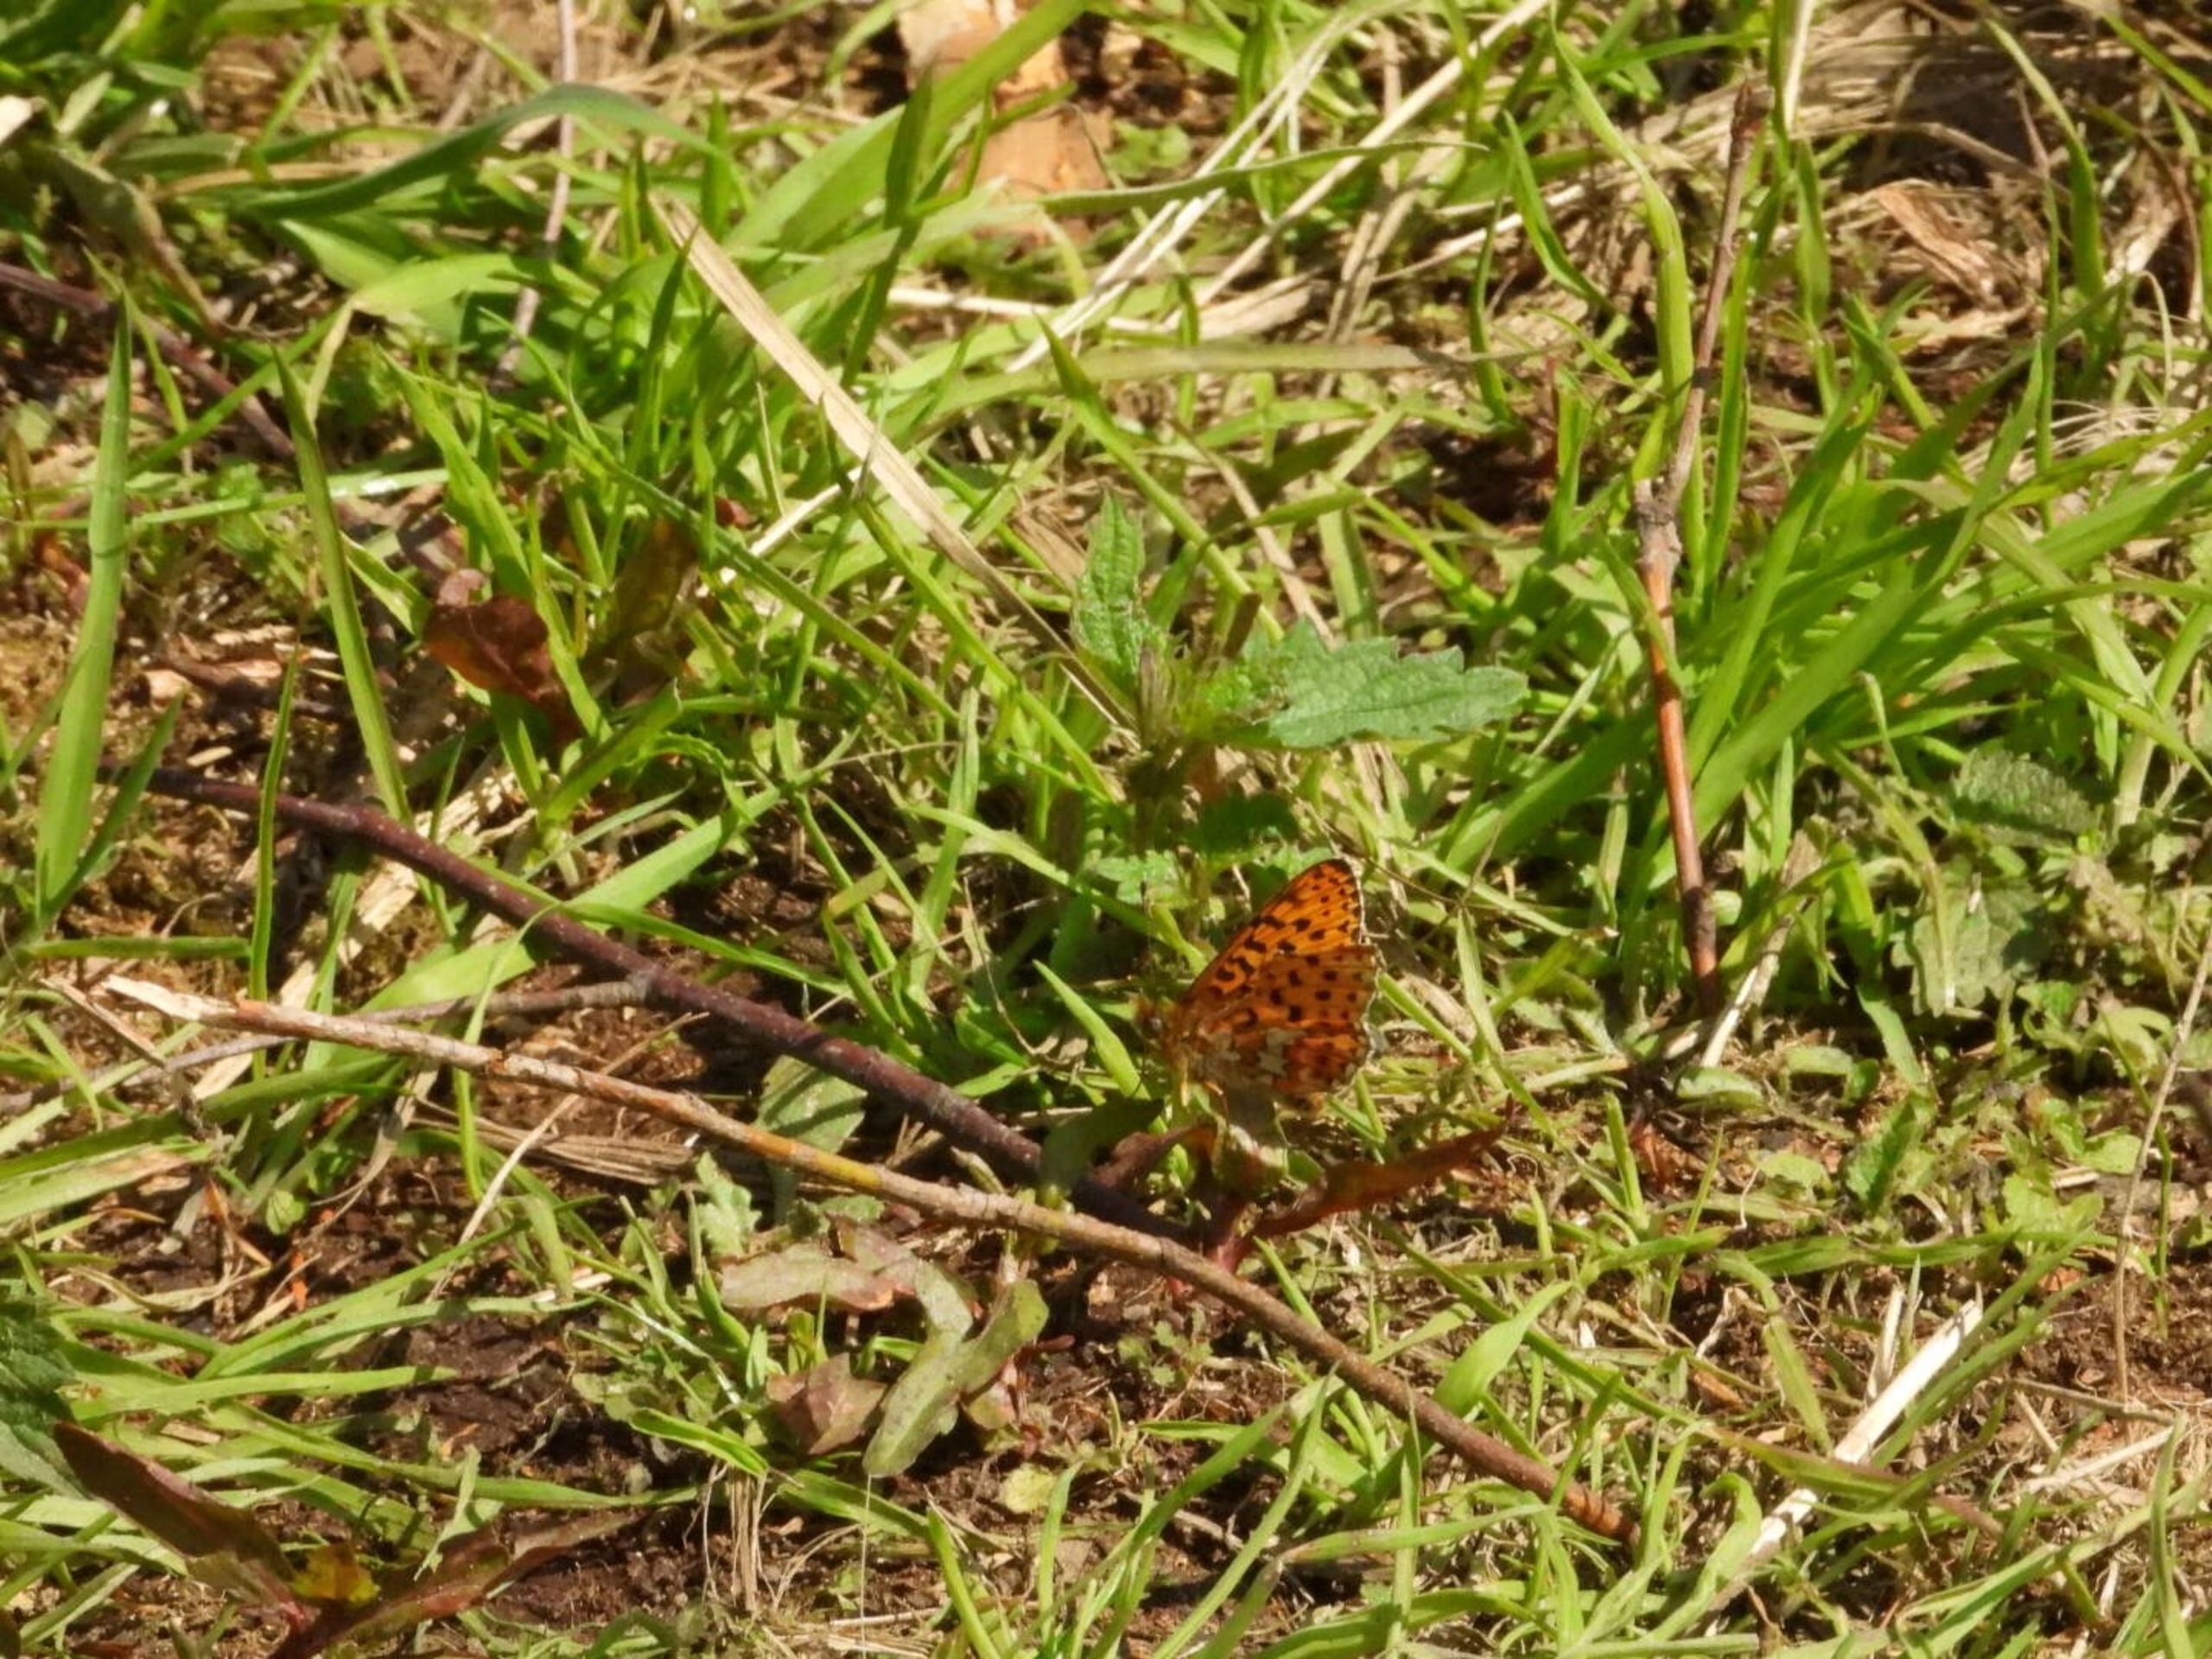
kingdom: Animalia
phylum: Arthropoda
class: Insecta
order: Lepidoptera
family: Nymphalidae
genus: Clossiana
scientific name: Clossiana euphrosyne
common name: Rødlig perlemorsommerfugl
